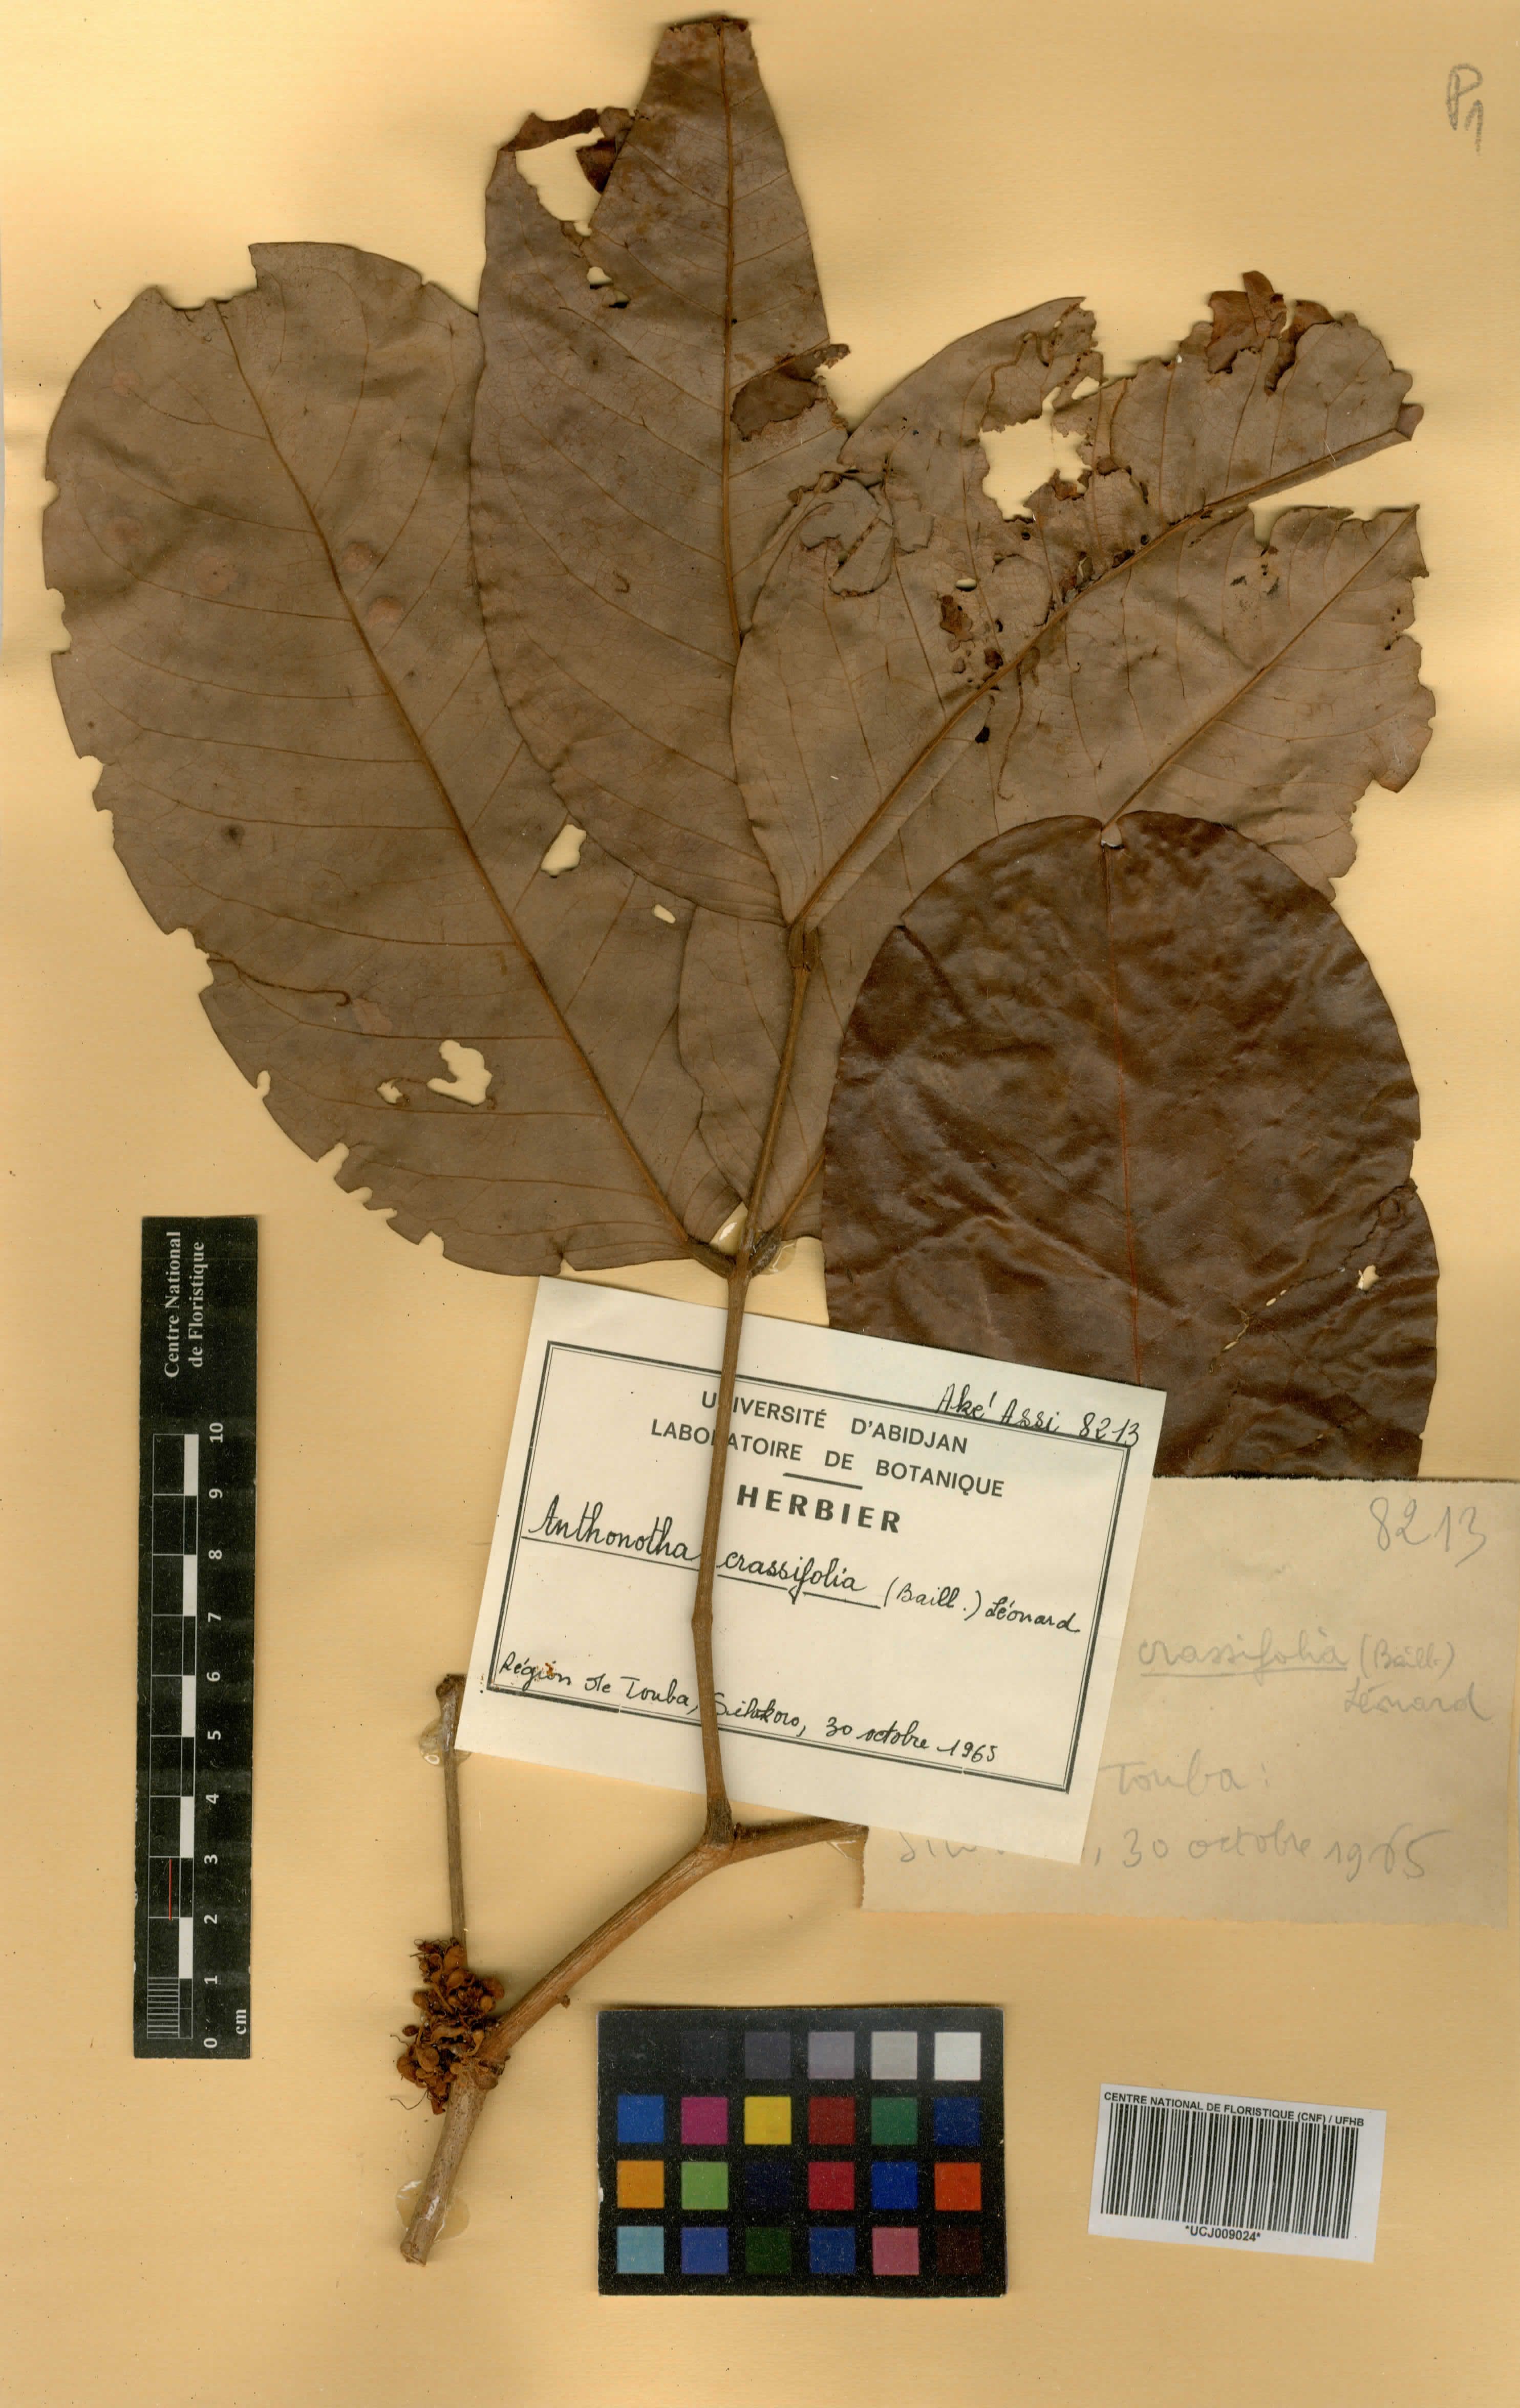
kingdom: Plantae
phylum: Tracheophyta
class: Magnoliopsida
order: Fabales
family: Fabaceae
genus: Anthonotha
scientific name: Anthonotha crassifolia
